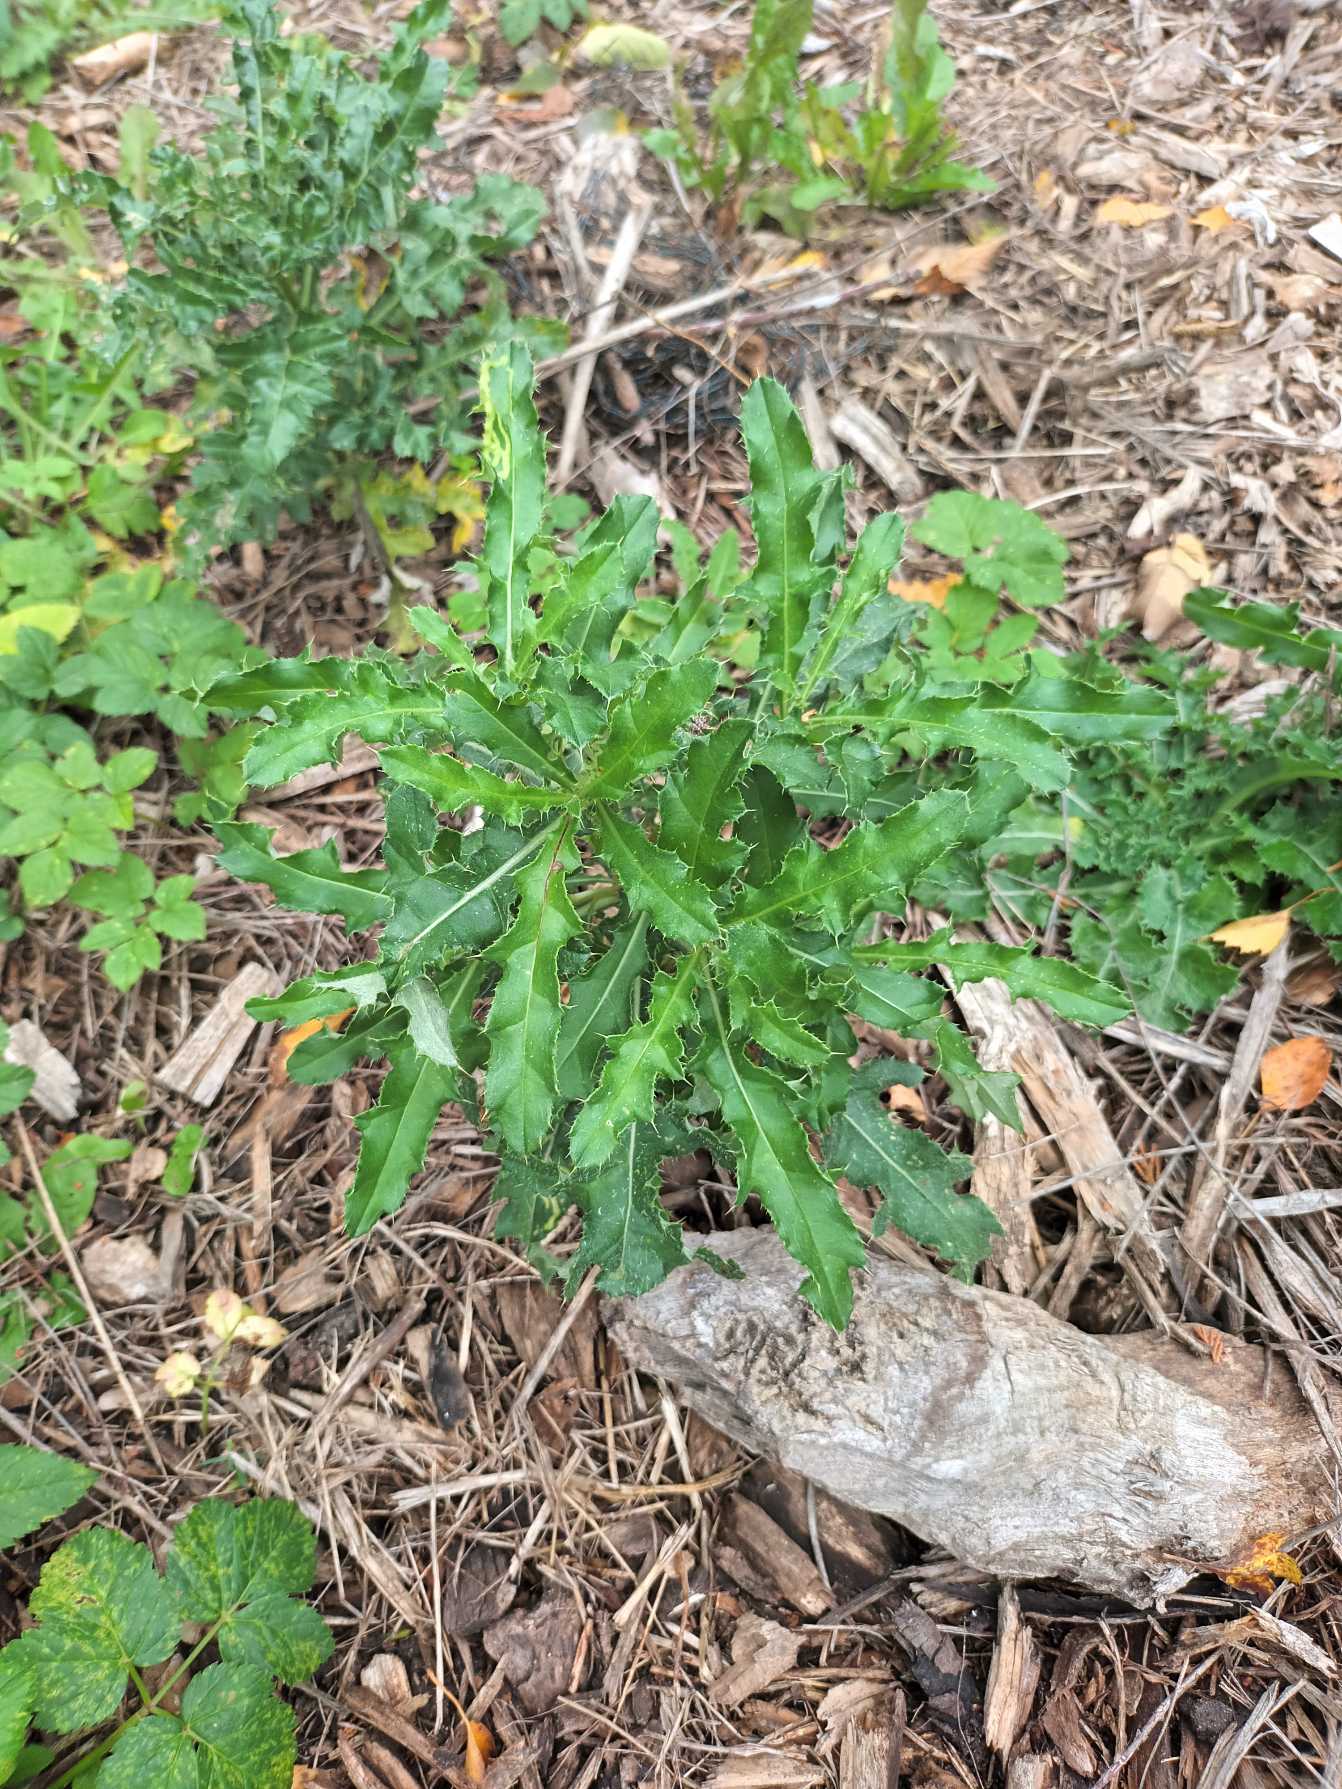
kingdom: Plantae
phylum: Tracheophyta
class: Magnoliopsida
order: Asterales
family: Asteraceae
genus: Cirsium
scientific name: Cirsium arvense
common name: Ager-tidsel
